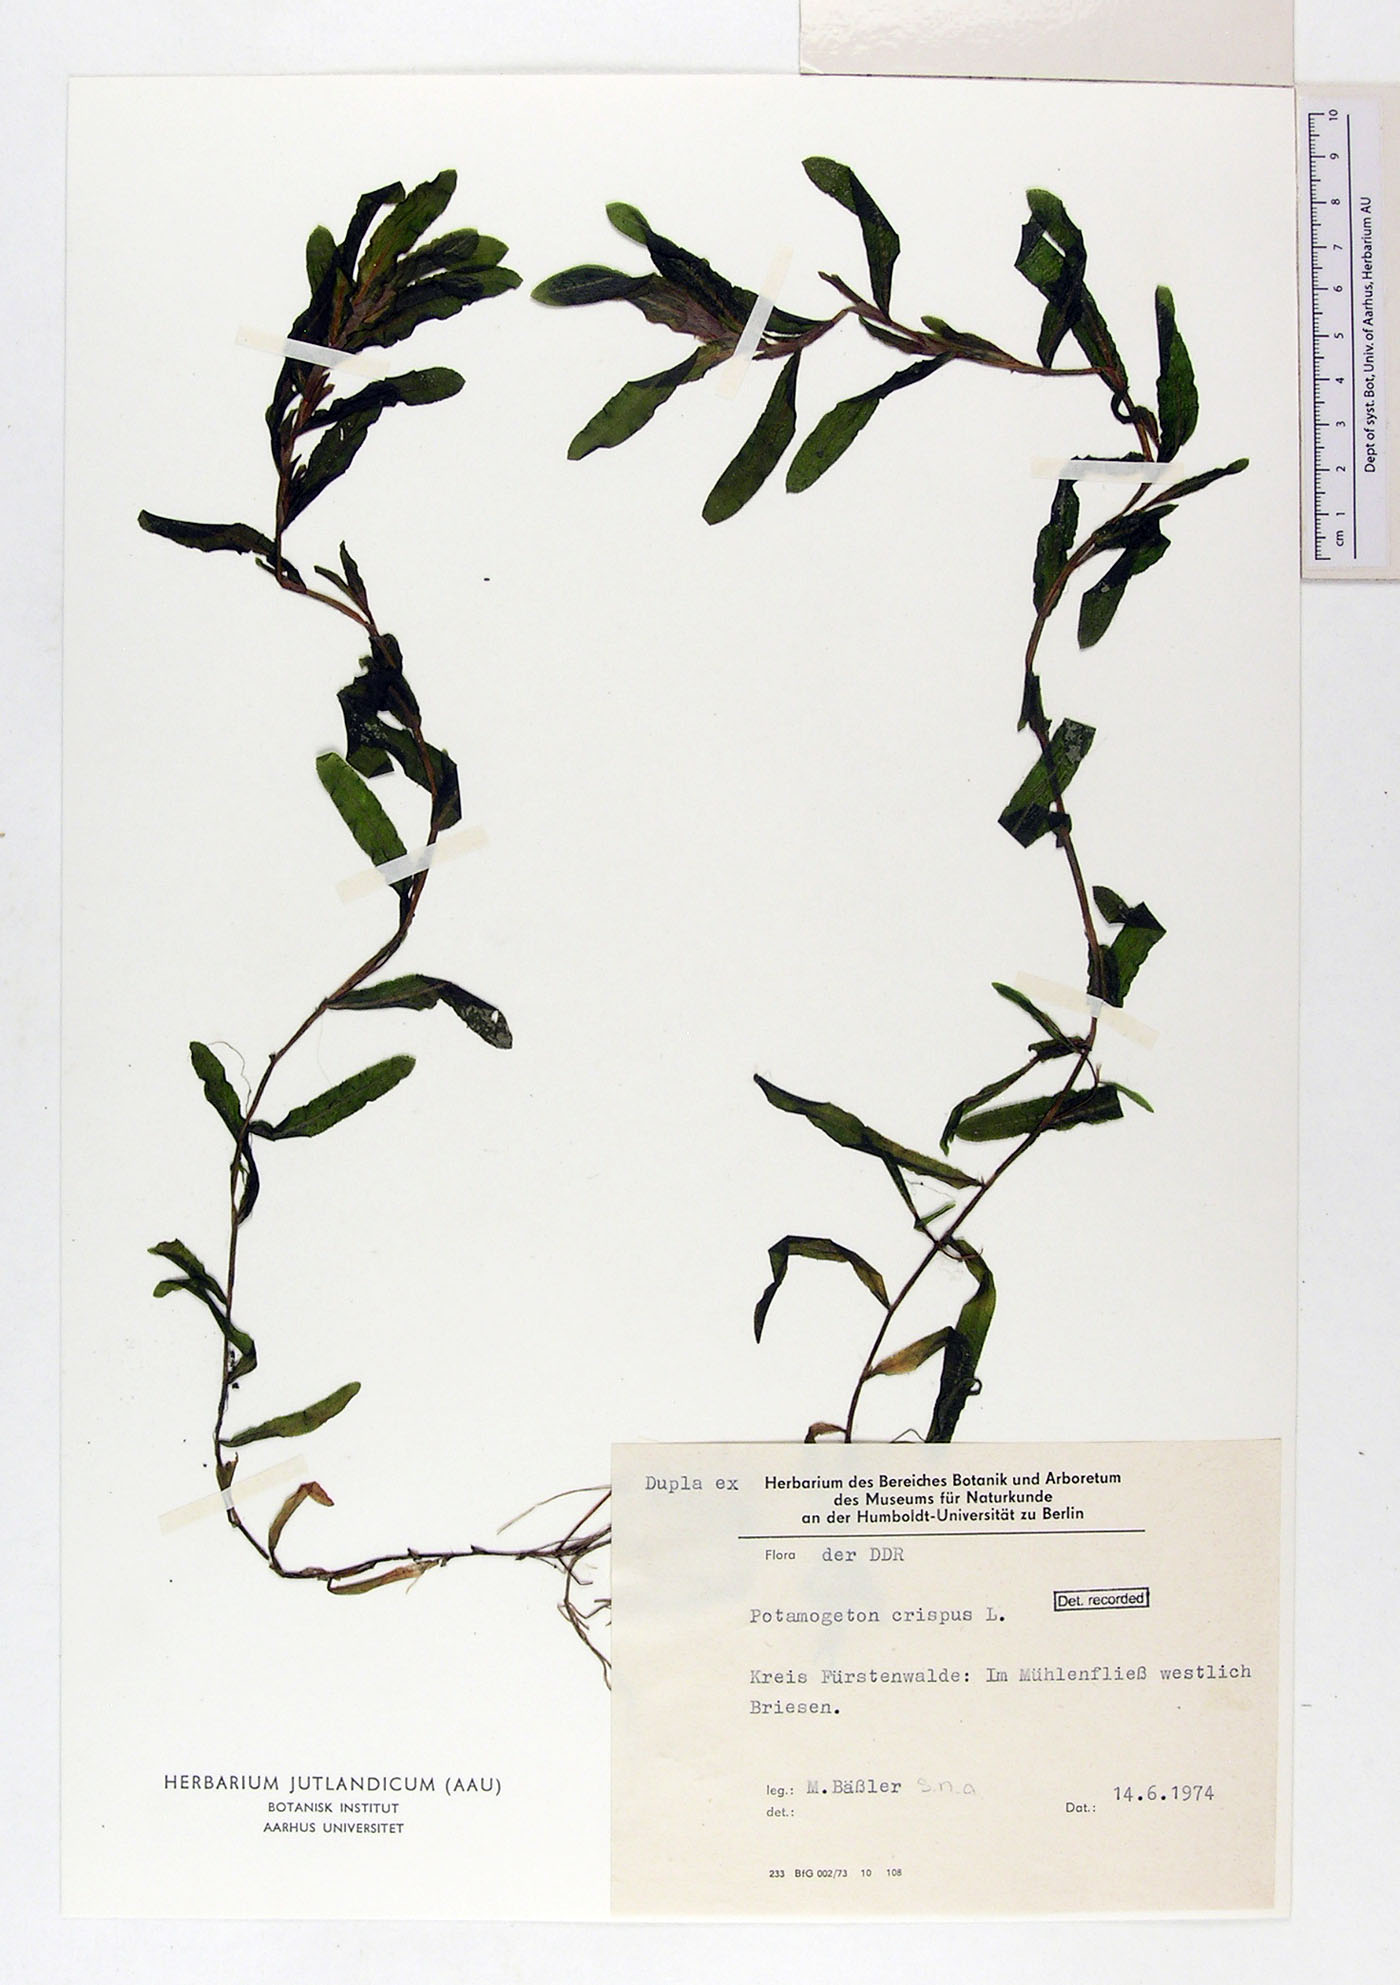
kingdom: Plantae
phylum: Tracheophyta
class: Liliopsida
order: Alismatales
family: Potamogetonaceae
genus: Potamogeton
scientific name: Potamogeton crispus
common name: Curled pondweed
